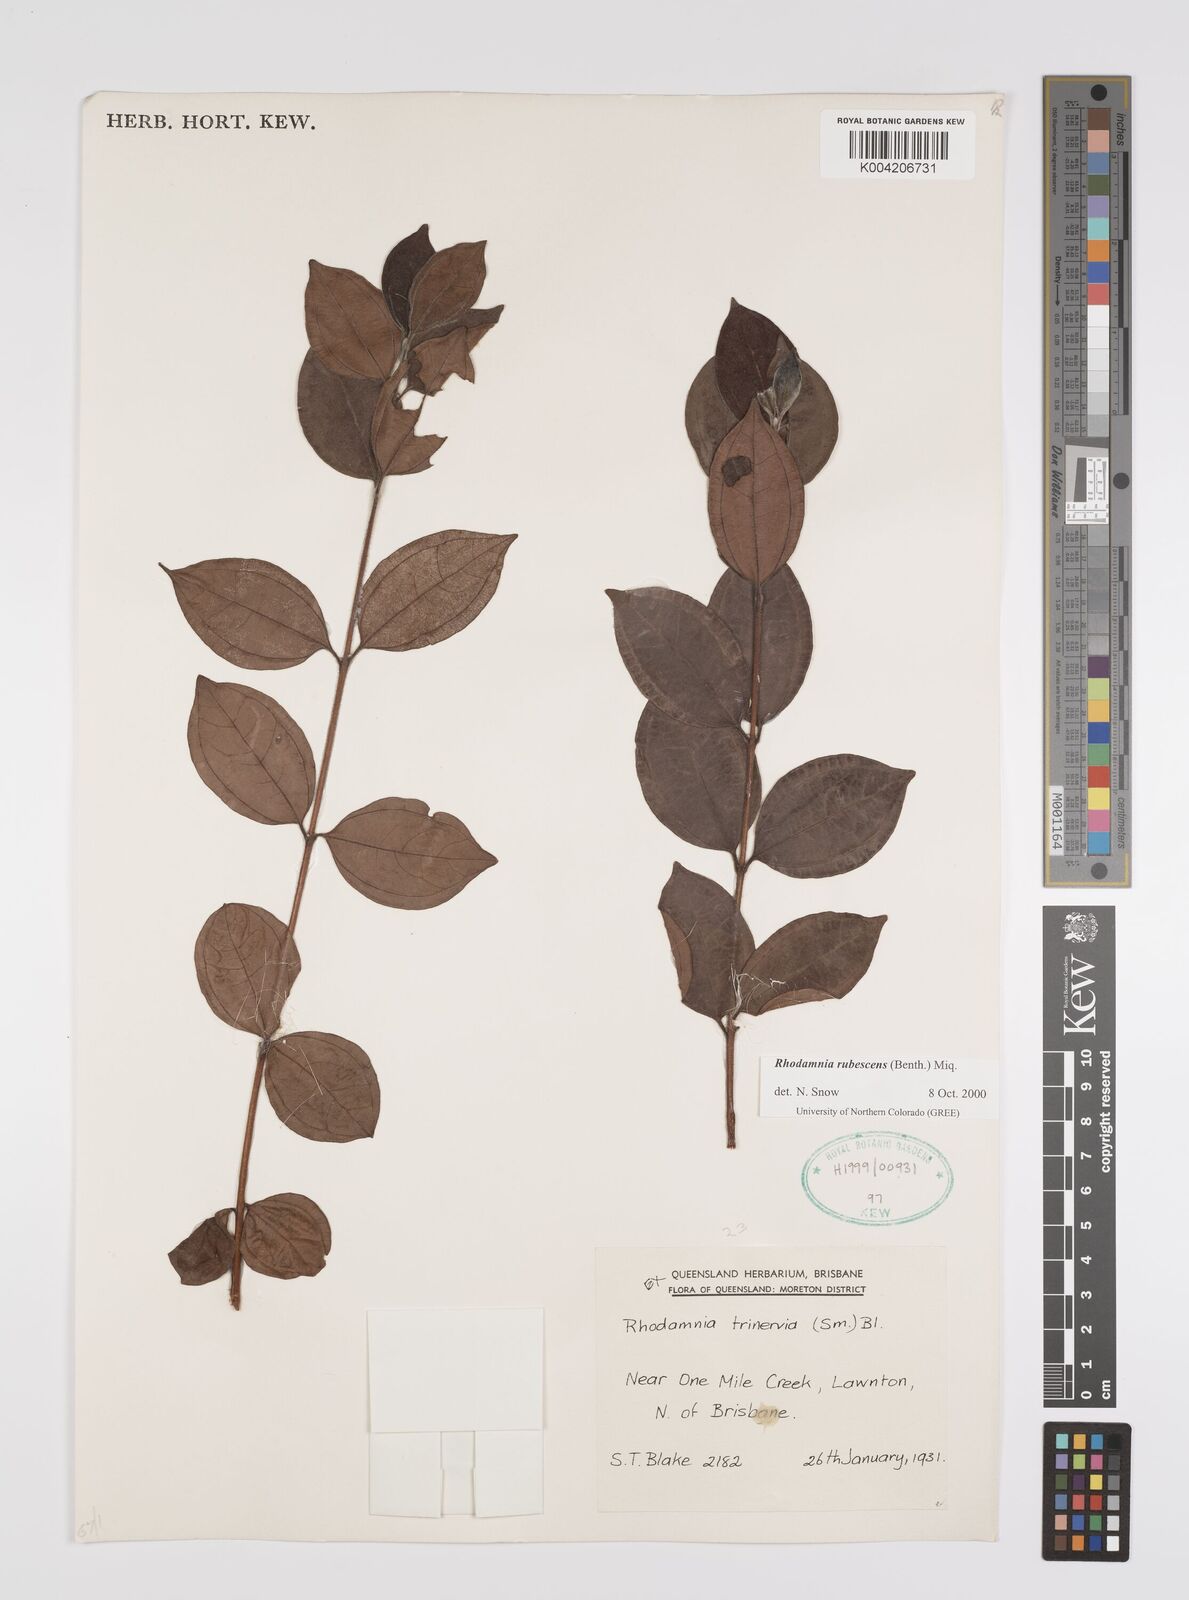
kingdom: Plantae
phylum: Tracheophyta
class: Magnoliopsida
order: Myrtales
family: Myrtaceae
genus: Rhodamnia
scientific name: Rhodamnia rubescens
